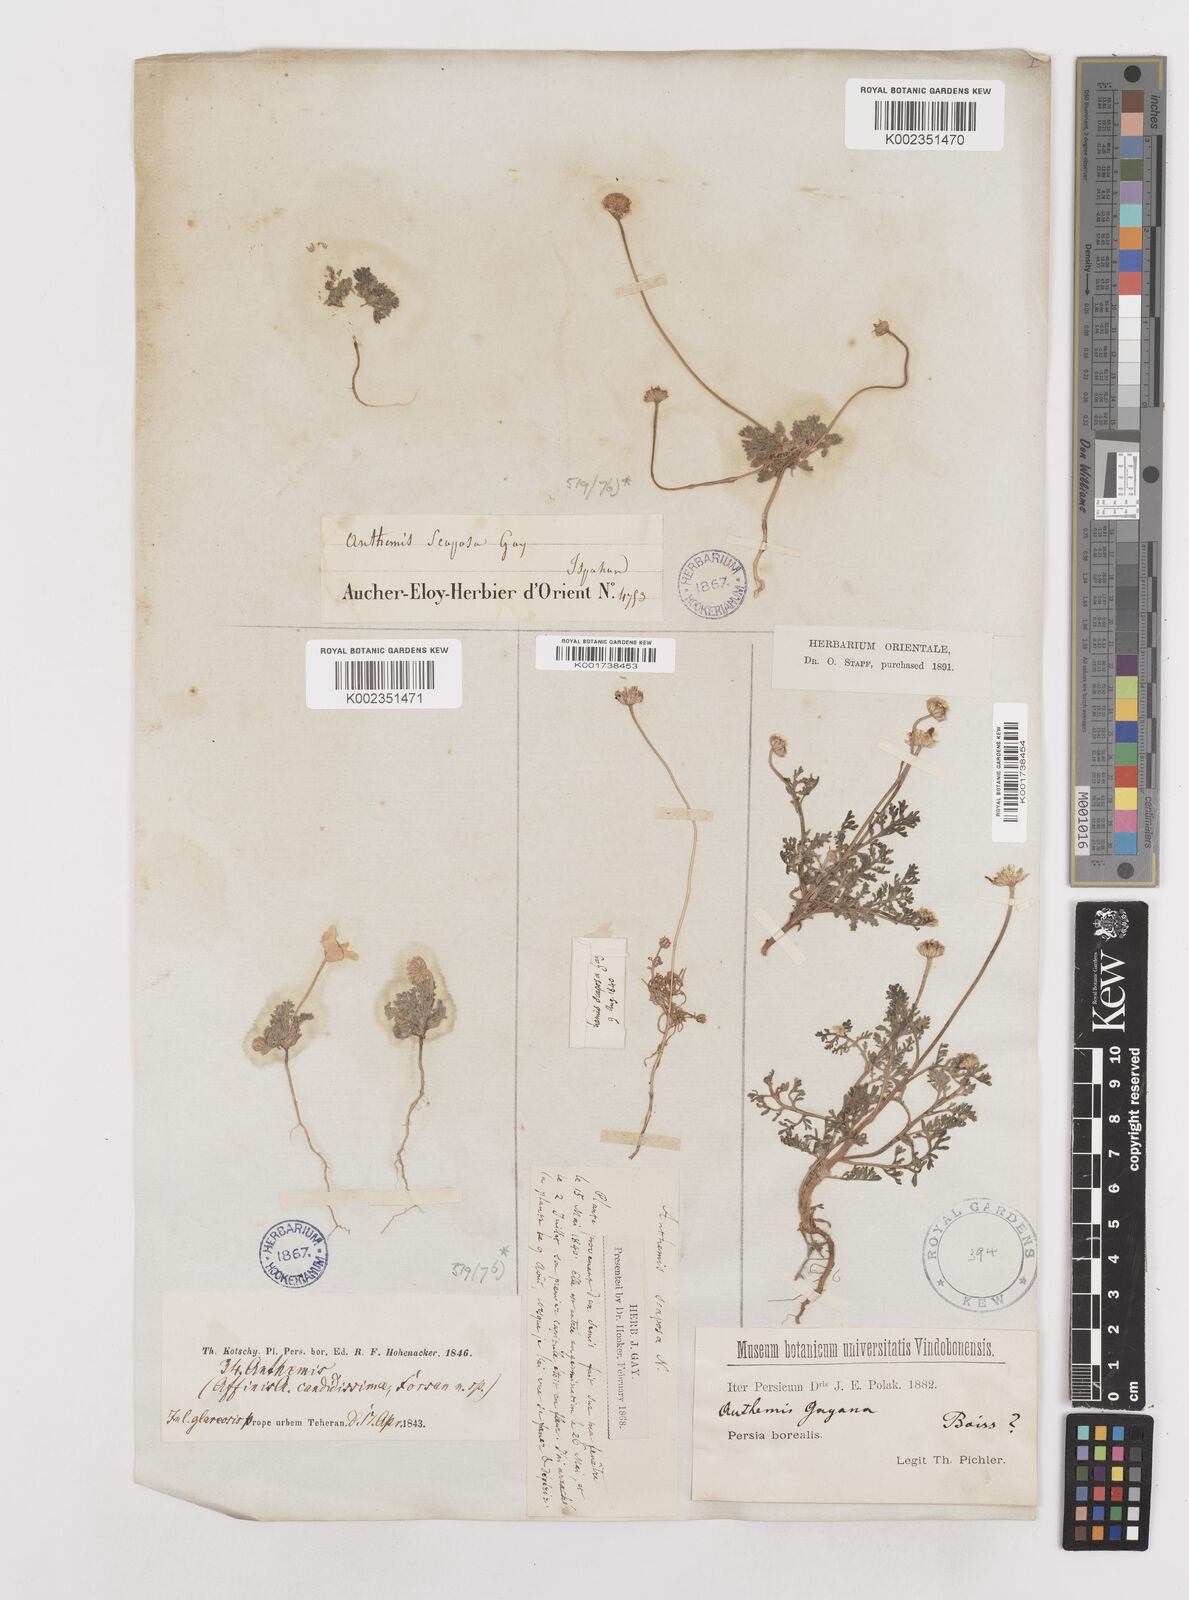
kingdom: Plantae
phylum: Tracheophyta
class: Magnoliopsida
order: Asterales
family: Asteraceae
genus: Anthemis
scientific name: Anthemis gayana
